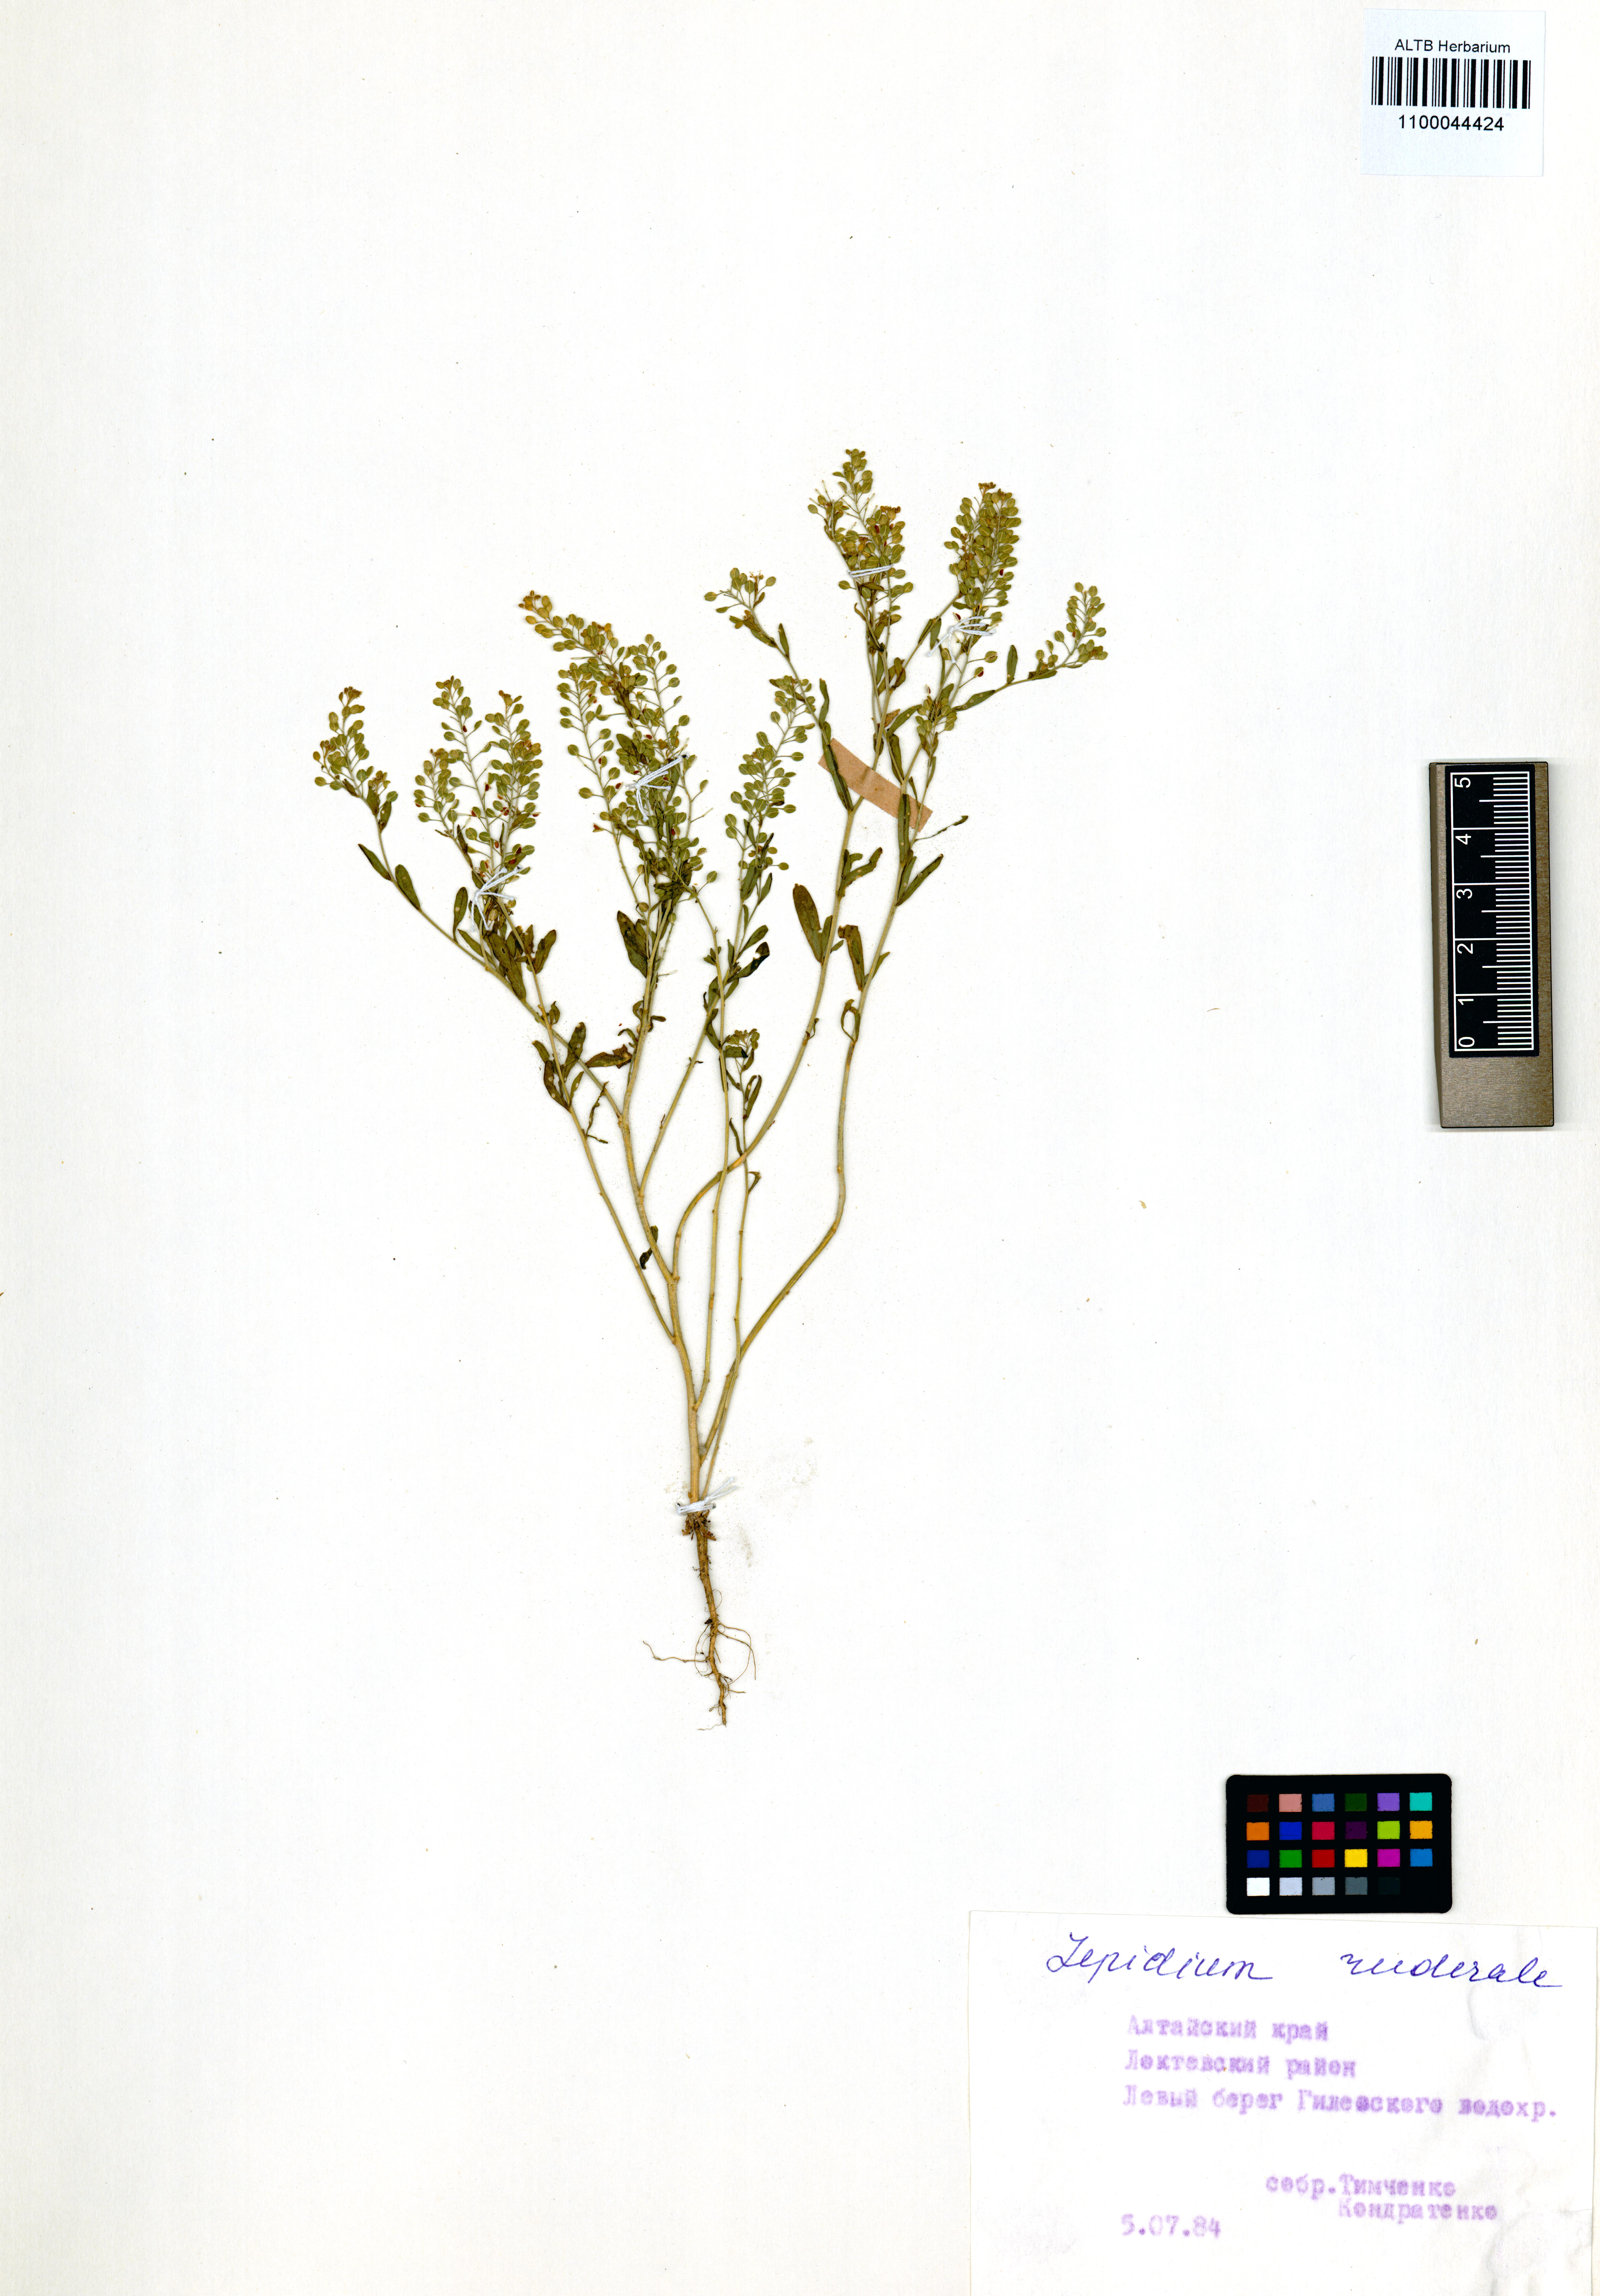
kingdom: Plantae
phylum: Tracheophyta
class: Magnoliopsida
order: Brassicales
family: Brassicaceae
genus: Lepidium
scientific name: Lepidium ruderale
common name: Narrow-leaved pepperwort
